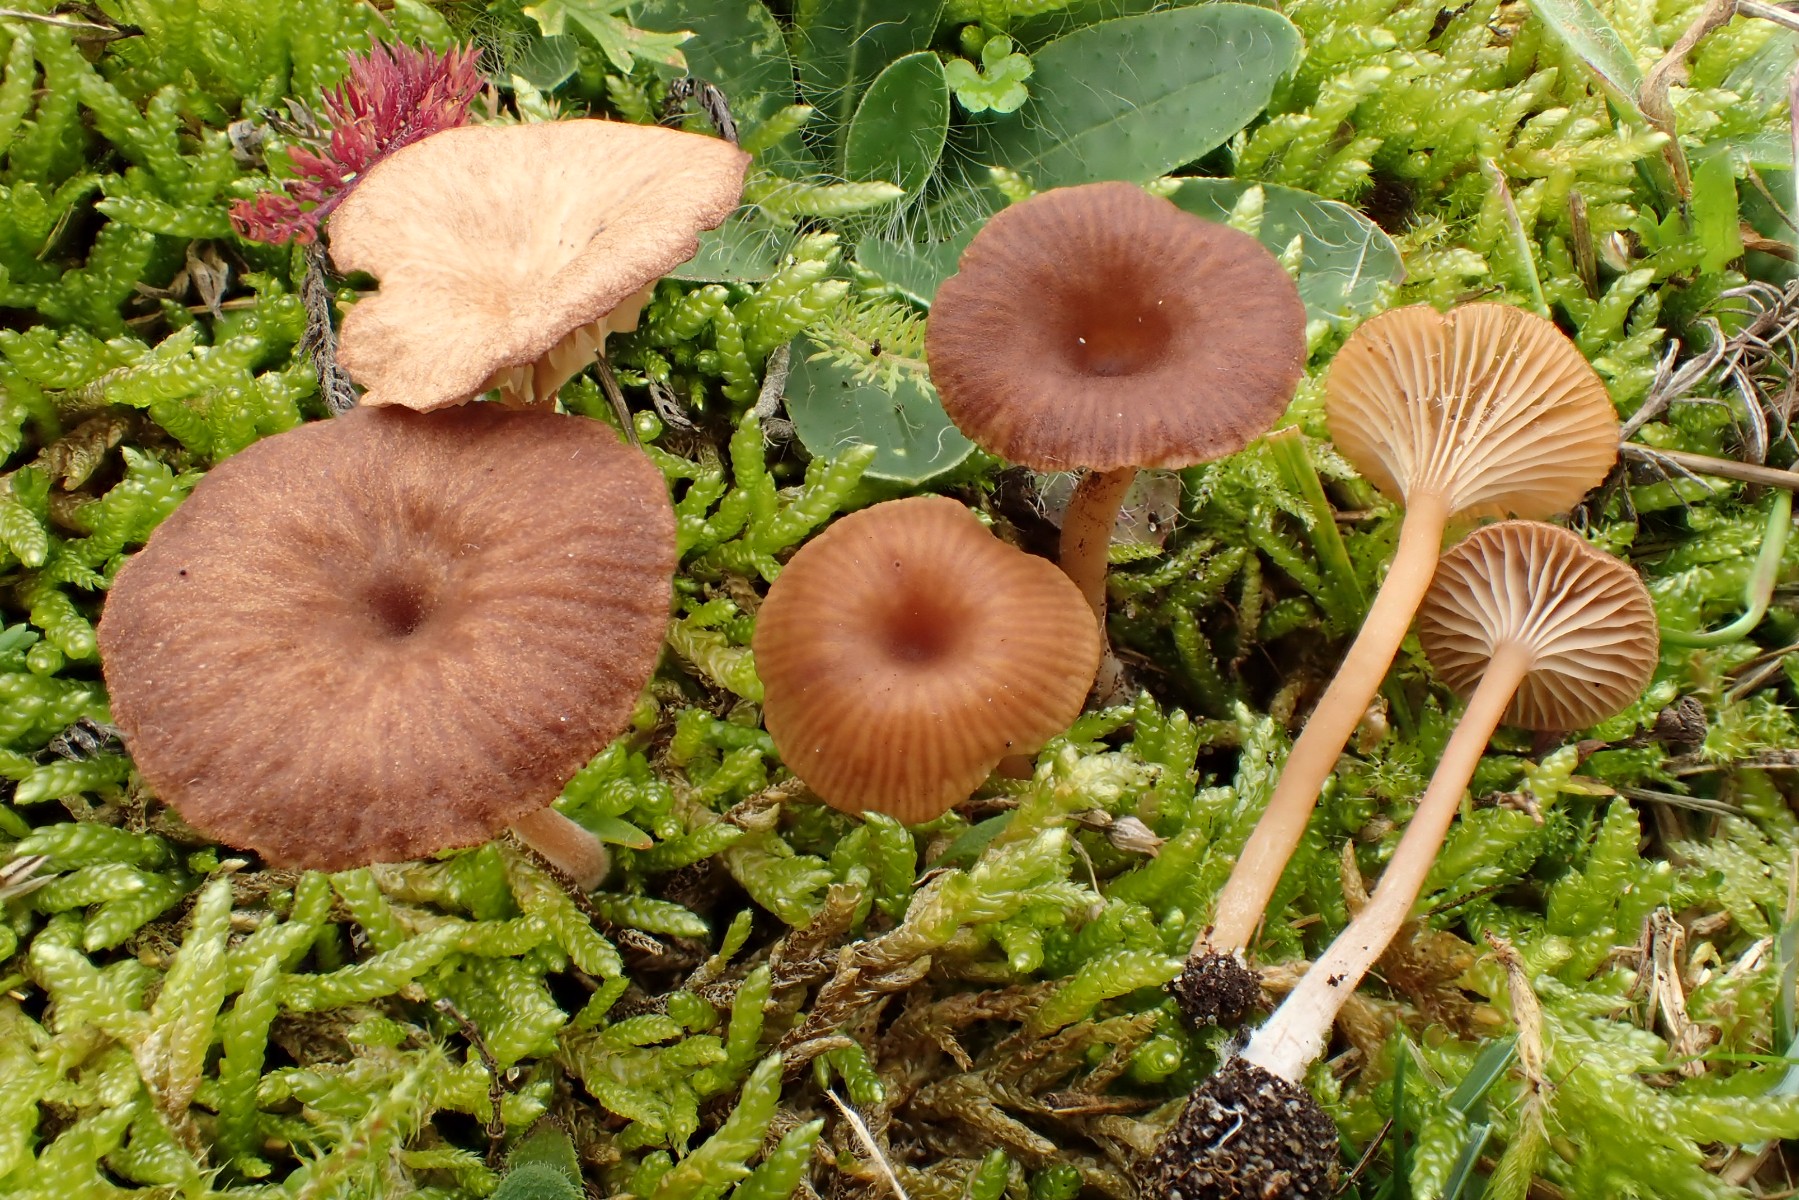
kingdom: Fungi
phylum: Basidiomycota
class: Agaricomycetes
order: Agaricales
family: Tricholomataceae
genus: Omphalina
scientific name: Omphalina pyxidata
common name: rødbrun navlehat
